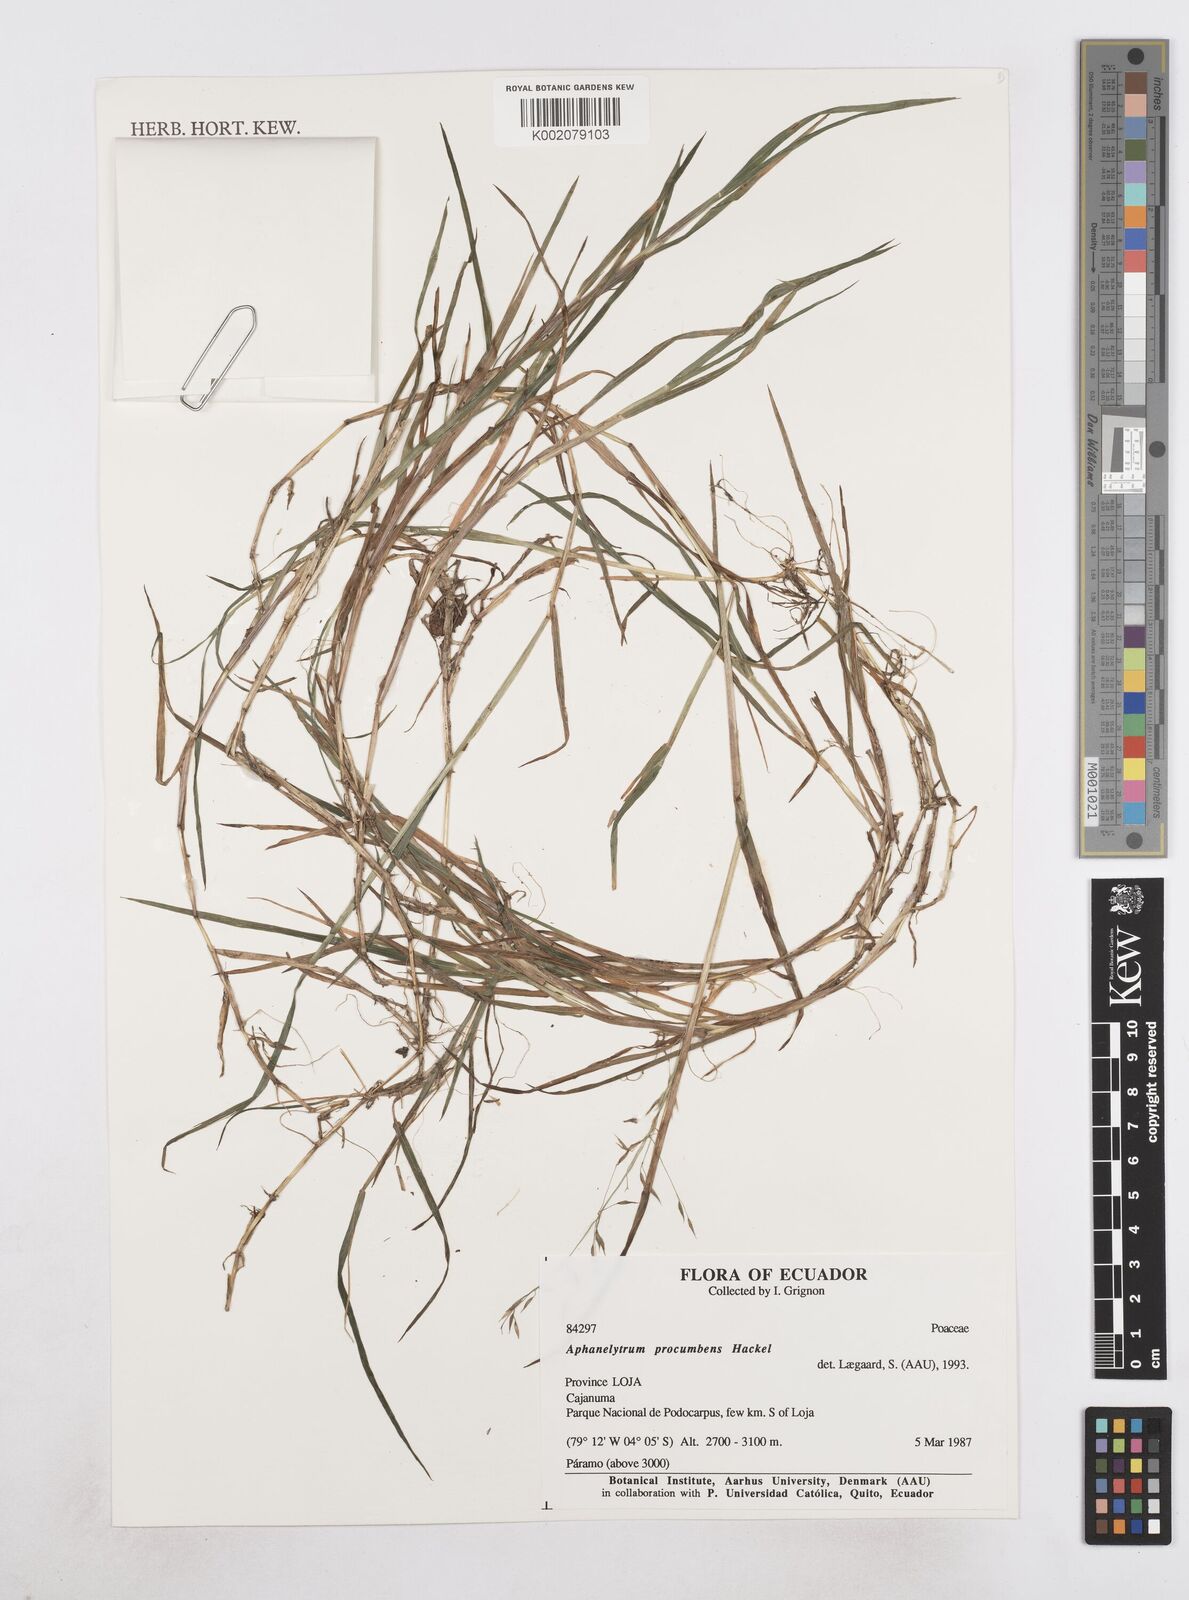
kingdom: Plantae
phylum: Tracheophyta
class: Liliopsida
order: Poales
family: Poaceae
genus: Poa
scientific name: Poa hitchcockiana
